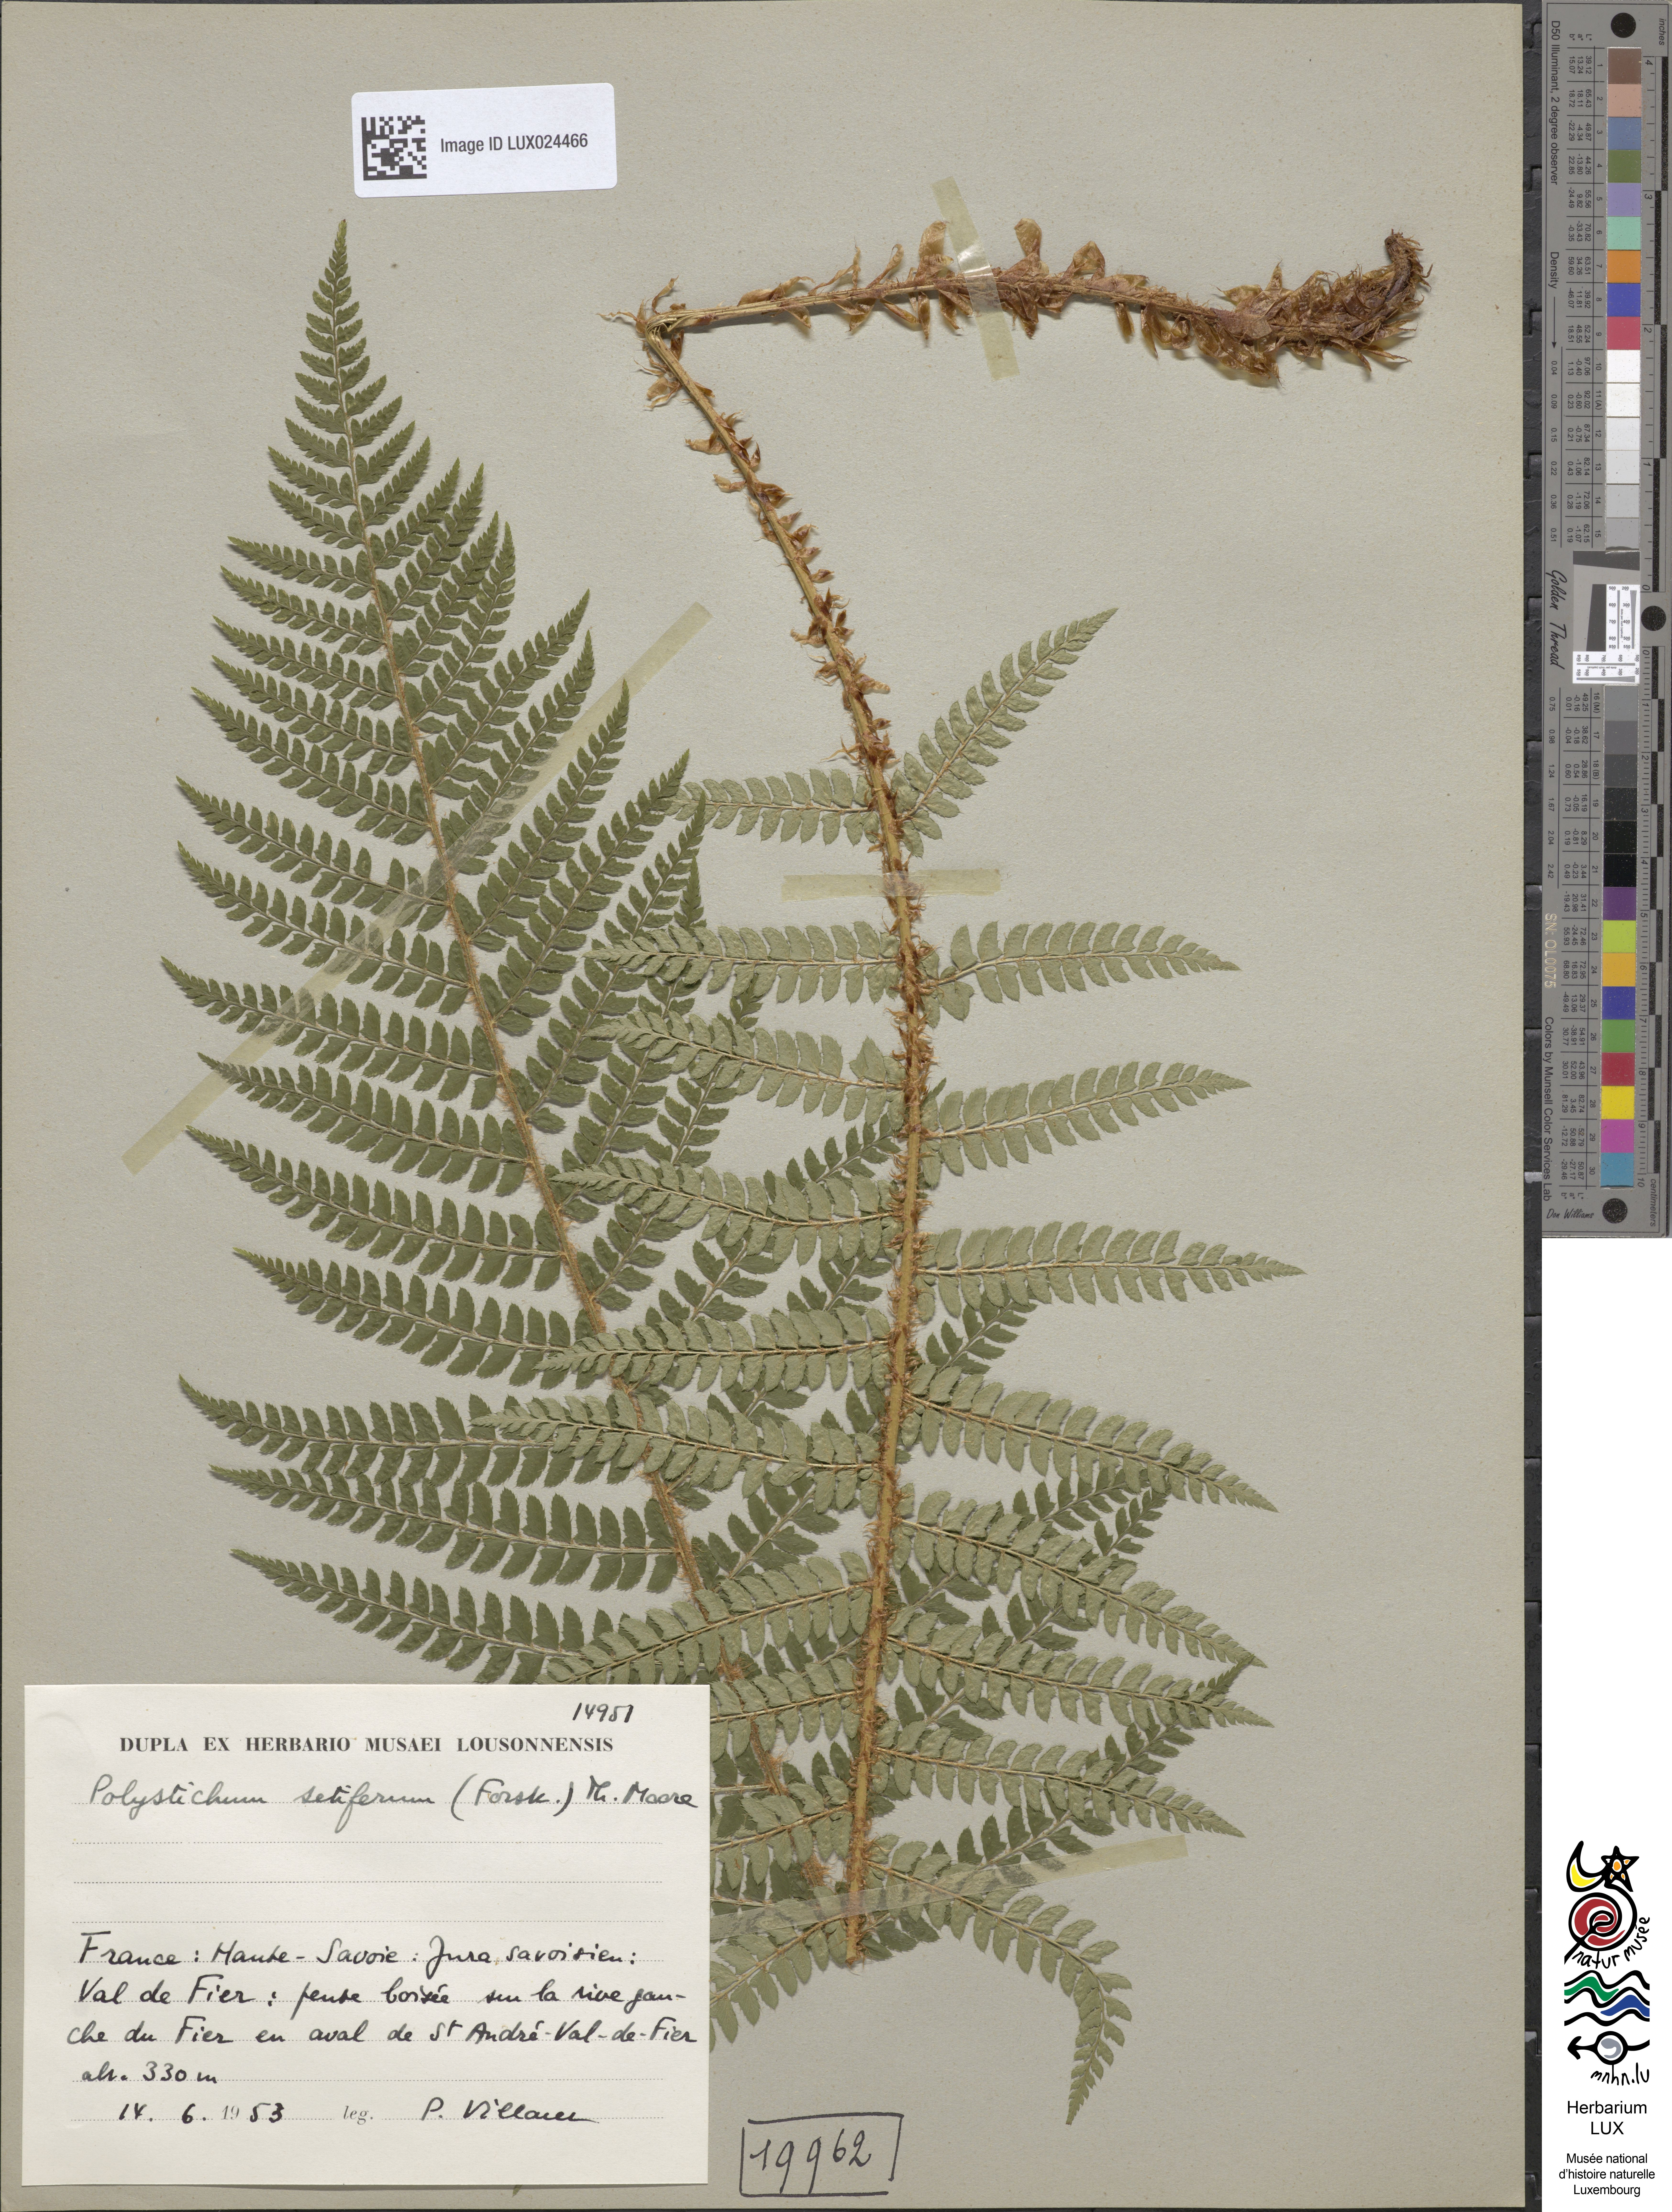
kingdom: Plantae
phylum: Tracheophyta
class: Polypodiopsida
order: Polypodiales
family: Dryopteridaceae
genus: Polystichum
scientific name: Polystichum setiferum
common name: Soft shield-fern
